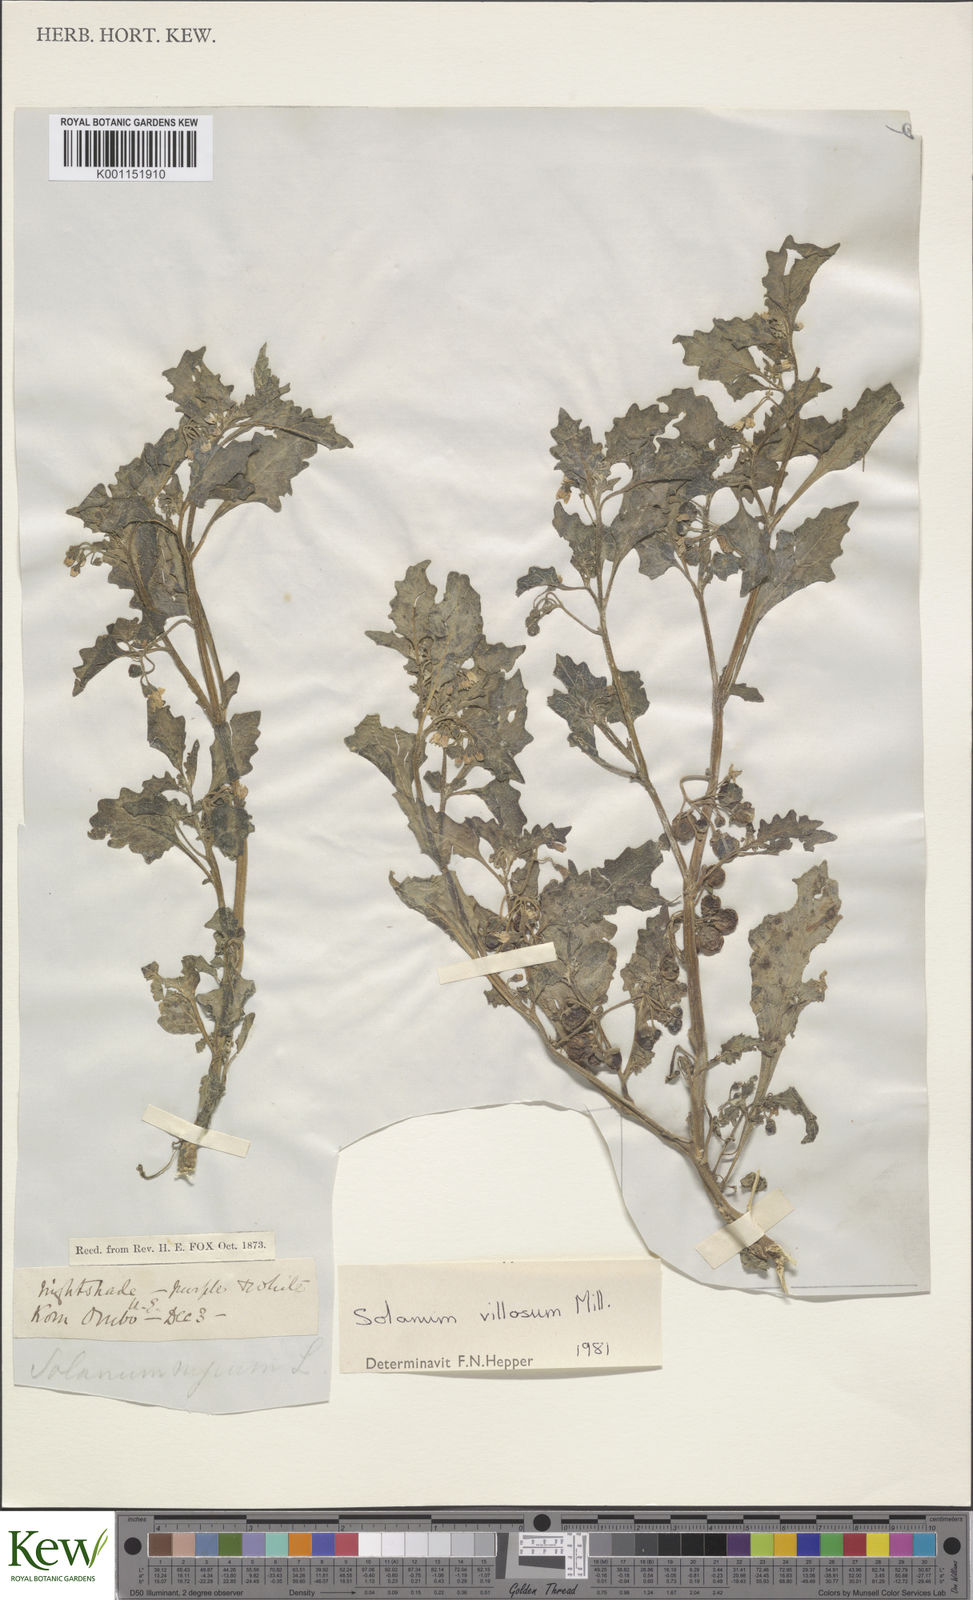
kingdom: Plantae
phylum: Tracheophyta
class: Magnoliopsida
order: Solanales
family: Solanaceae
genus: Solanum
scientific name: Solanum villosum
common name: Red nightshade
